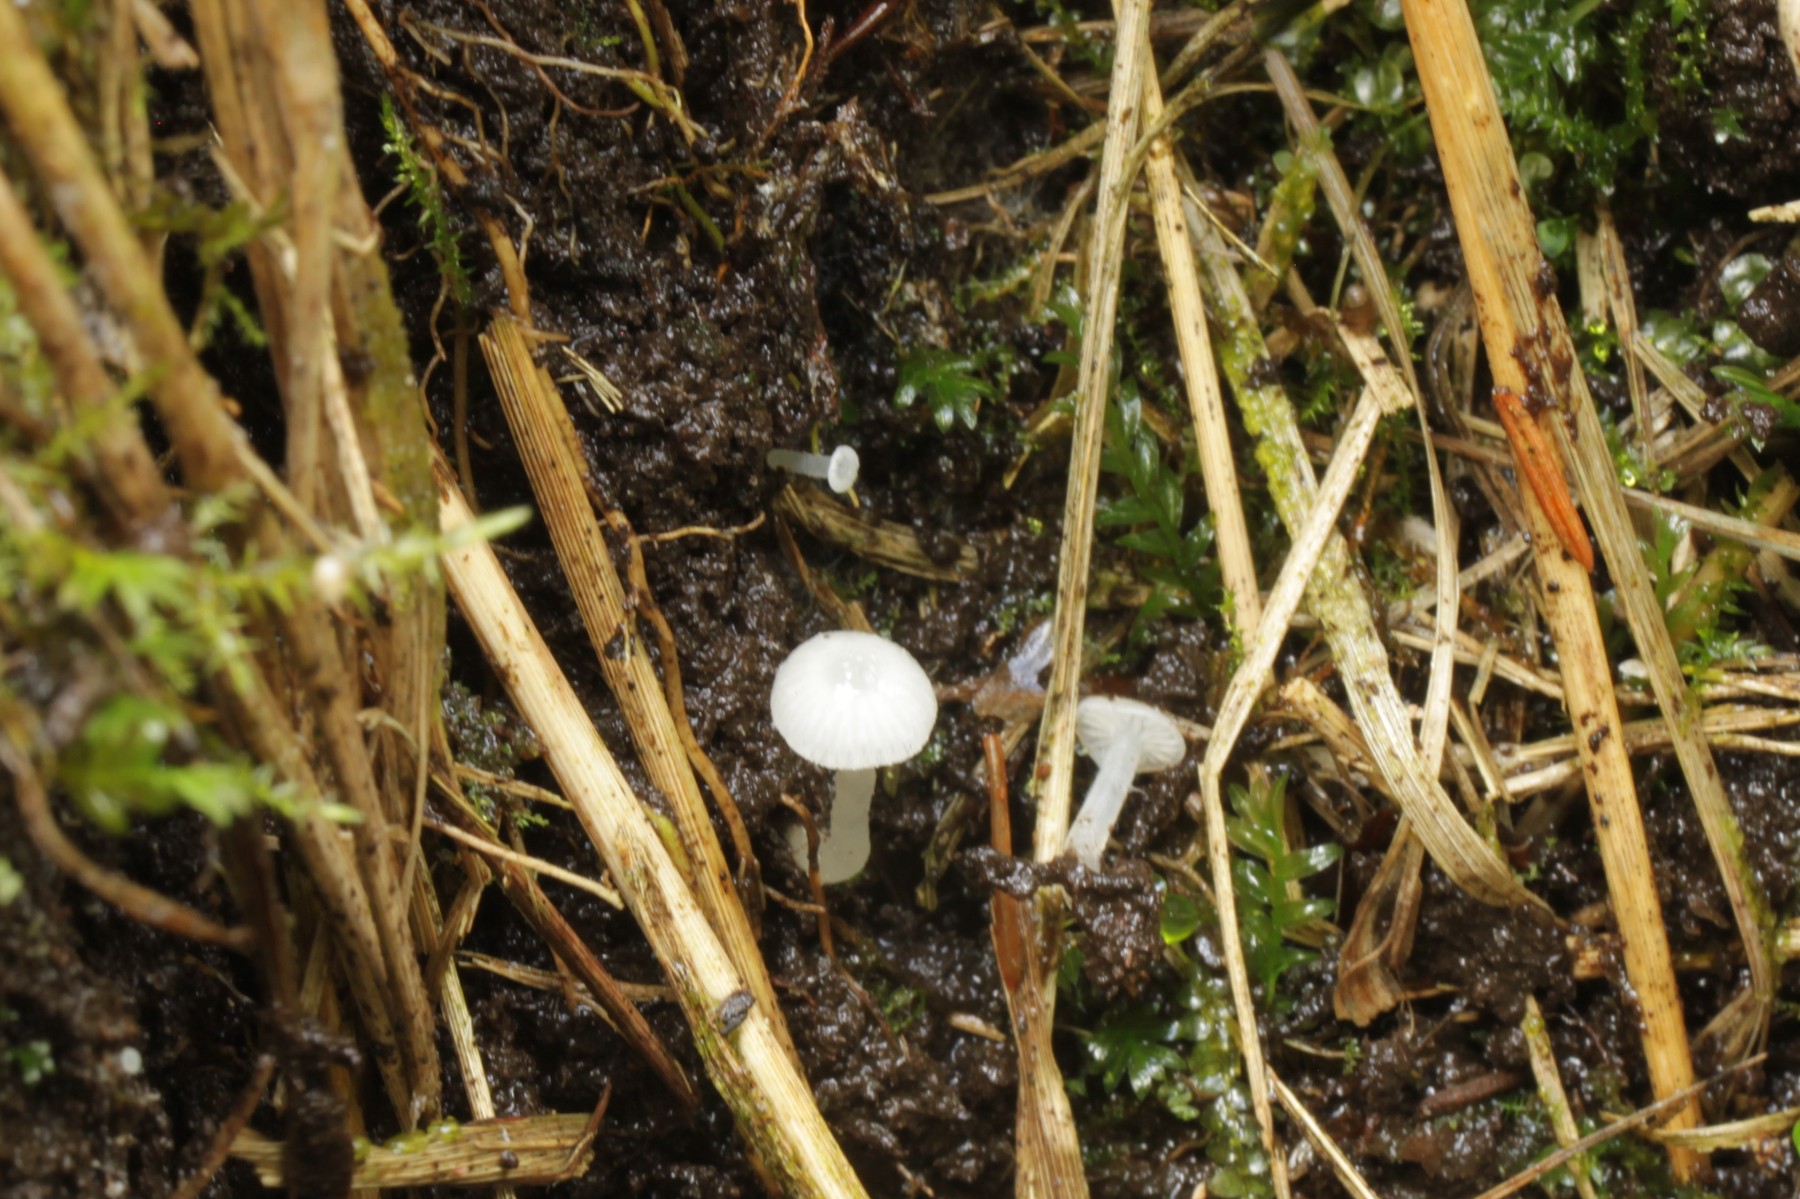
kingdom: Fungi
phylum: Basidiomycota
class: Agaricomycetes
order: Agaricales
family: Entolomataceae
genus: Entoloma
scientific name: Entoloma
